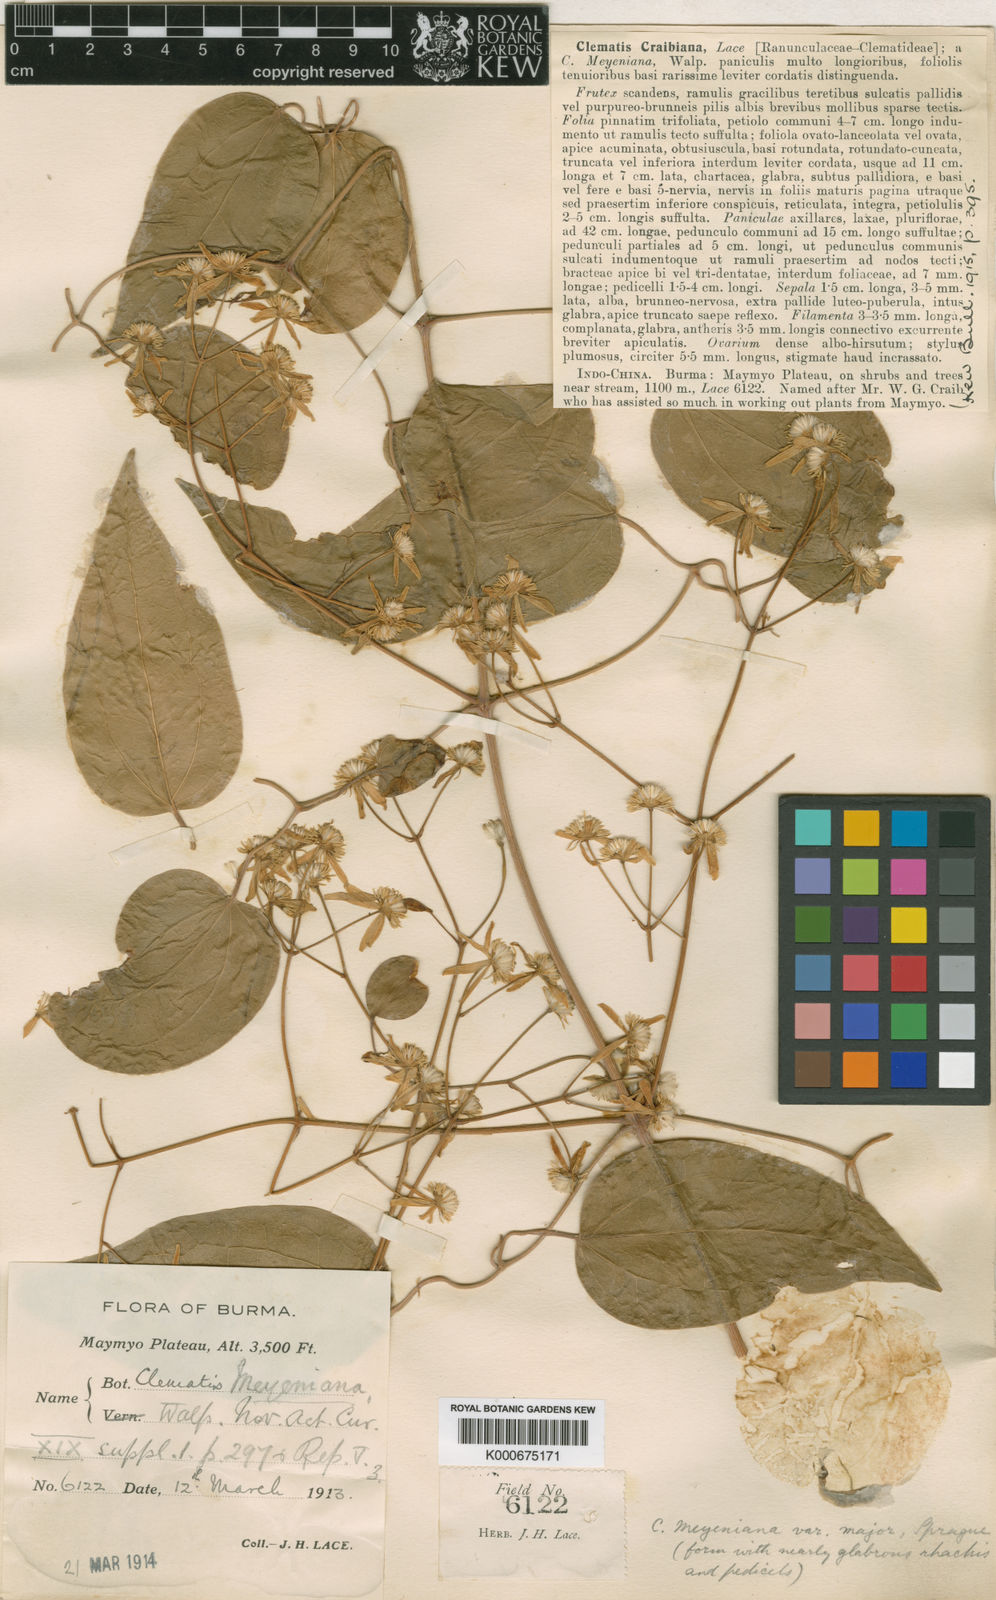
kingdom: Plantae
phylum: Tracheophyta
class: Magnoliopsida
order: Ranunculales
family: Ranunculaceae
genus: Clematis
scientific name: Clematis craibiana
